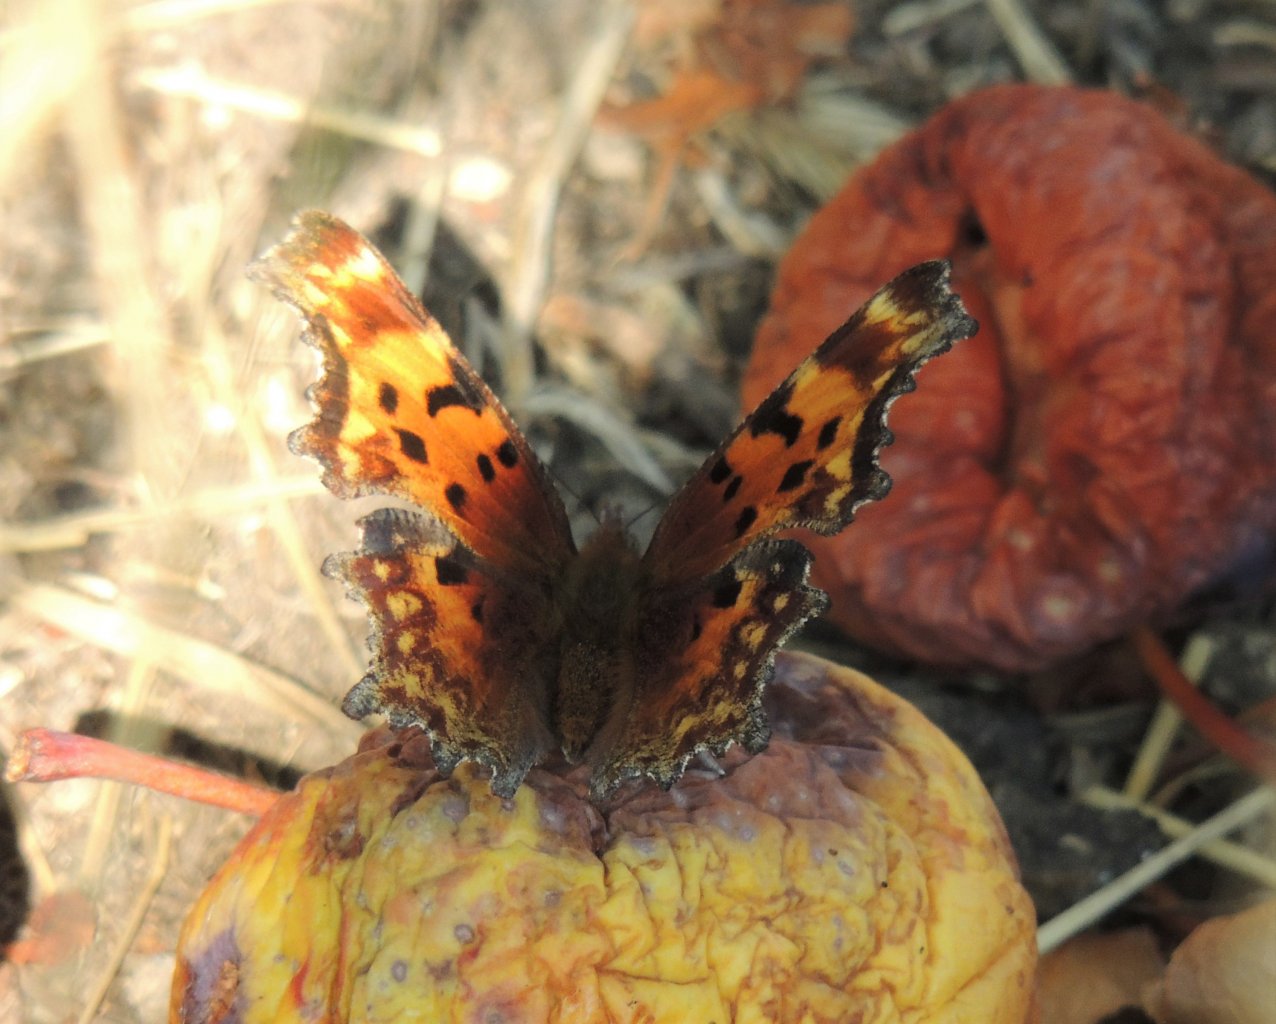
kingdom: Animalia
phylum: Arthropoda
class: Insecta
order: Lepidoptera
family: Nymphalidae
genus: Polygonia
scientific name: Polygonia gracilis
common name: Hoary Comma
